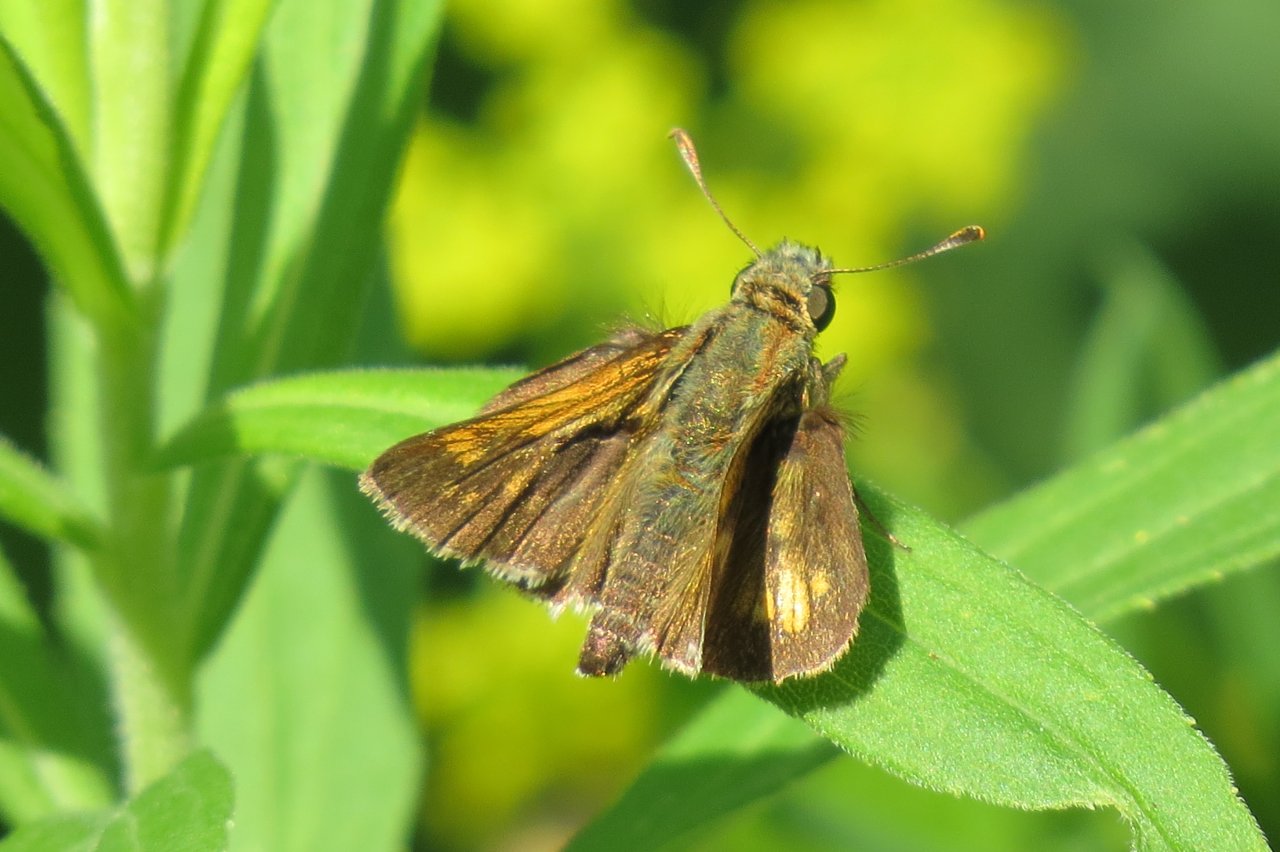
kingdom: Animalia
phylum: Arthropoda
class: Insecta
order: Lepidoptera
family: Hesperiidae
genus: Hesperia
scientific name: Hesperia leonardus
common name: Leonard's Skipper
